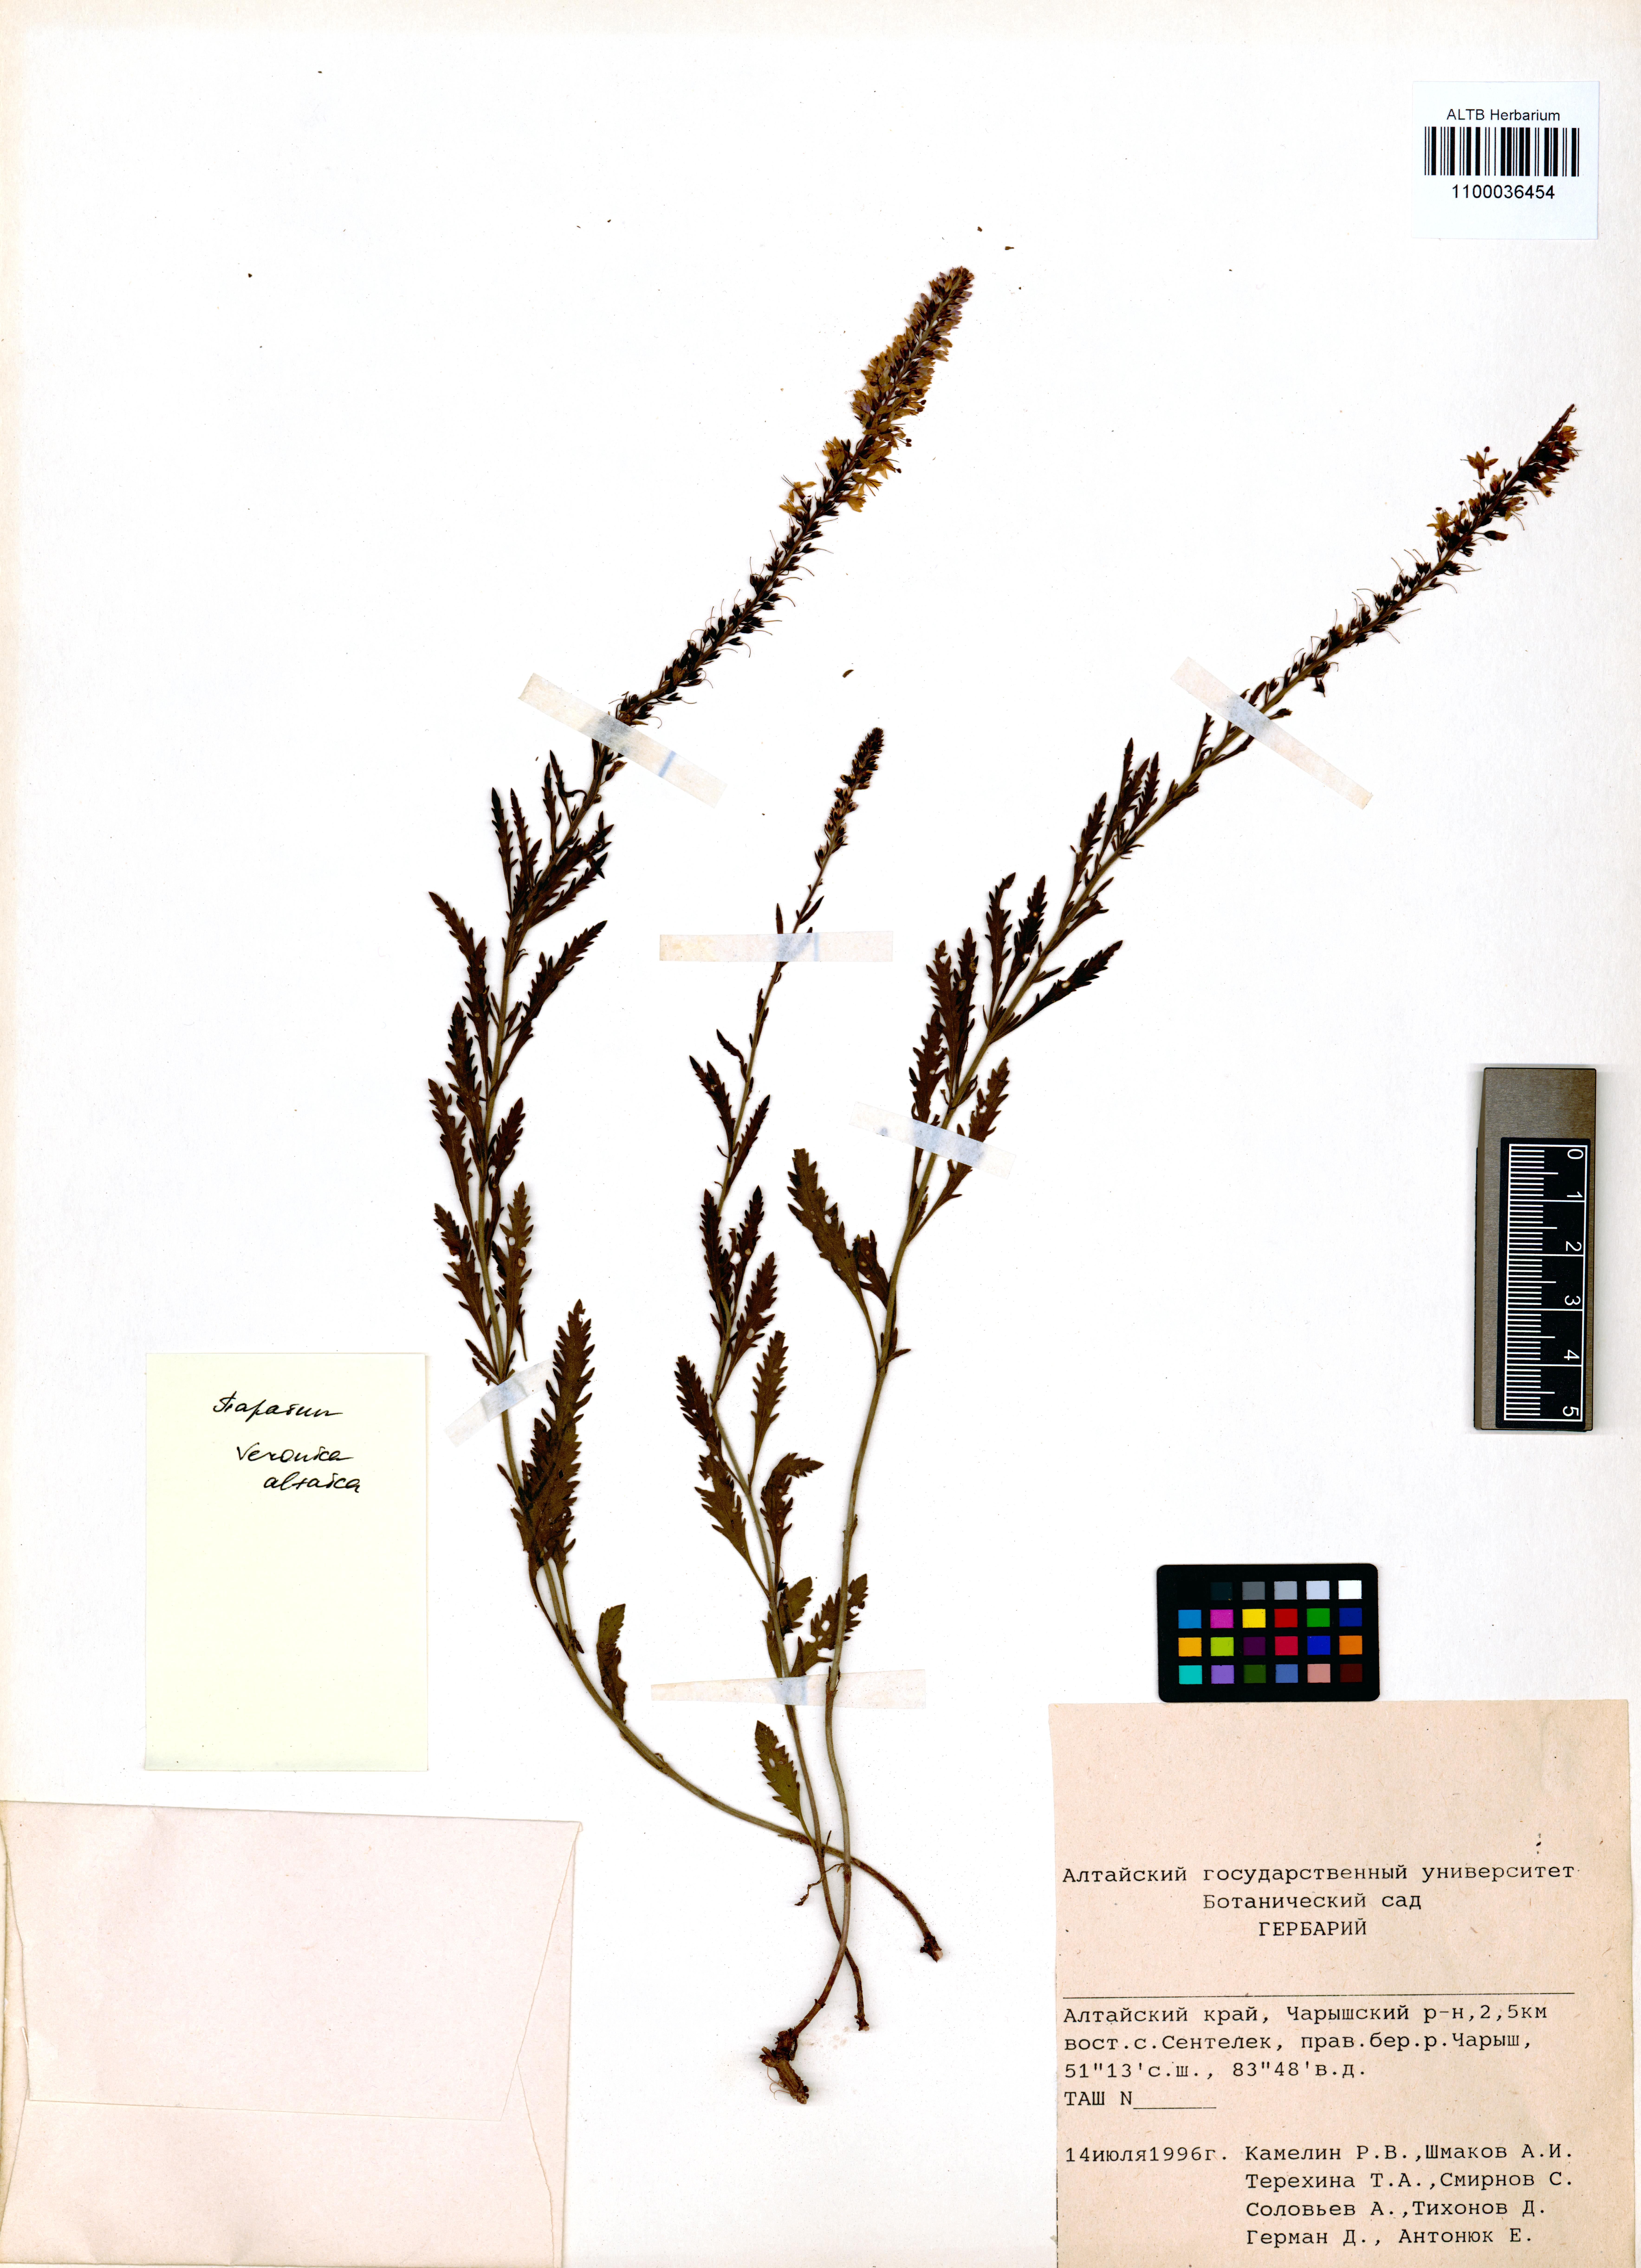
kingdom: Plantae
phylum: Tracheophyta
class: Magnoliopsida
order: Lamiales
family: Plantaginaceae
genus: Veronica
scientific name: Veronica altaica
